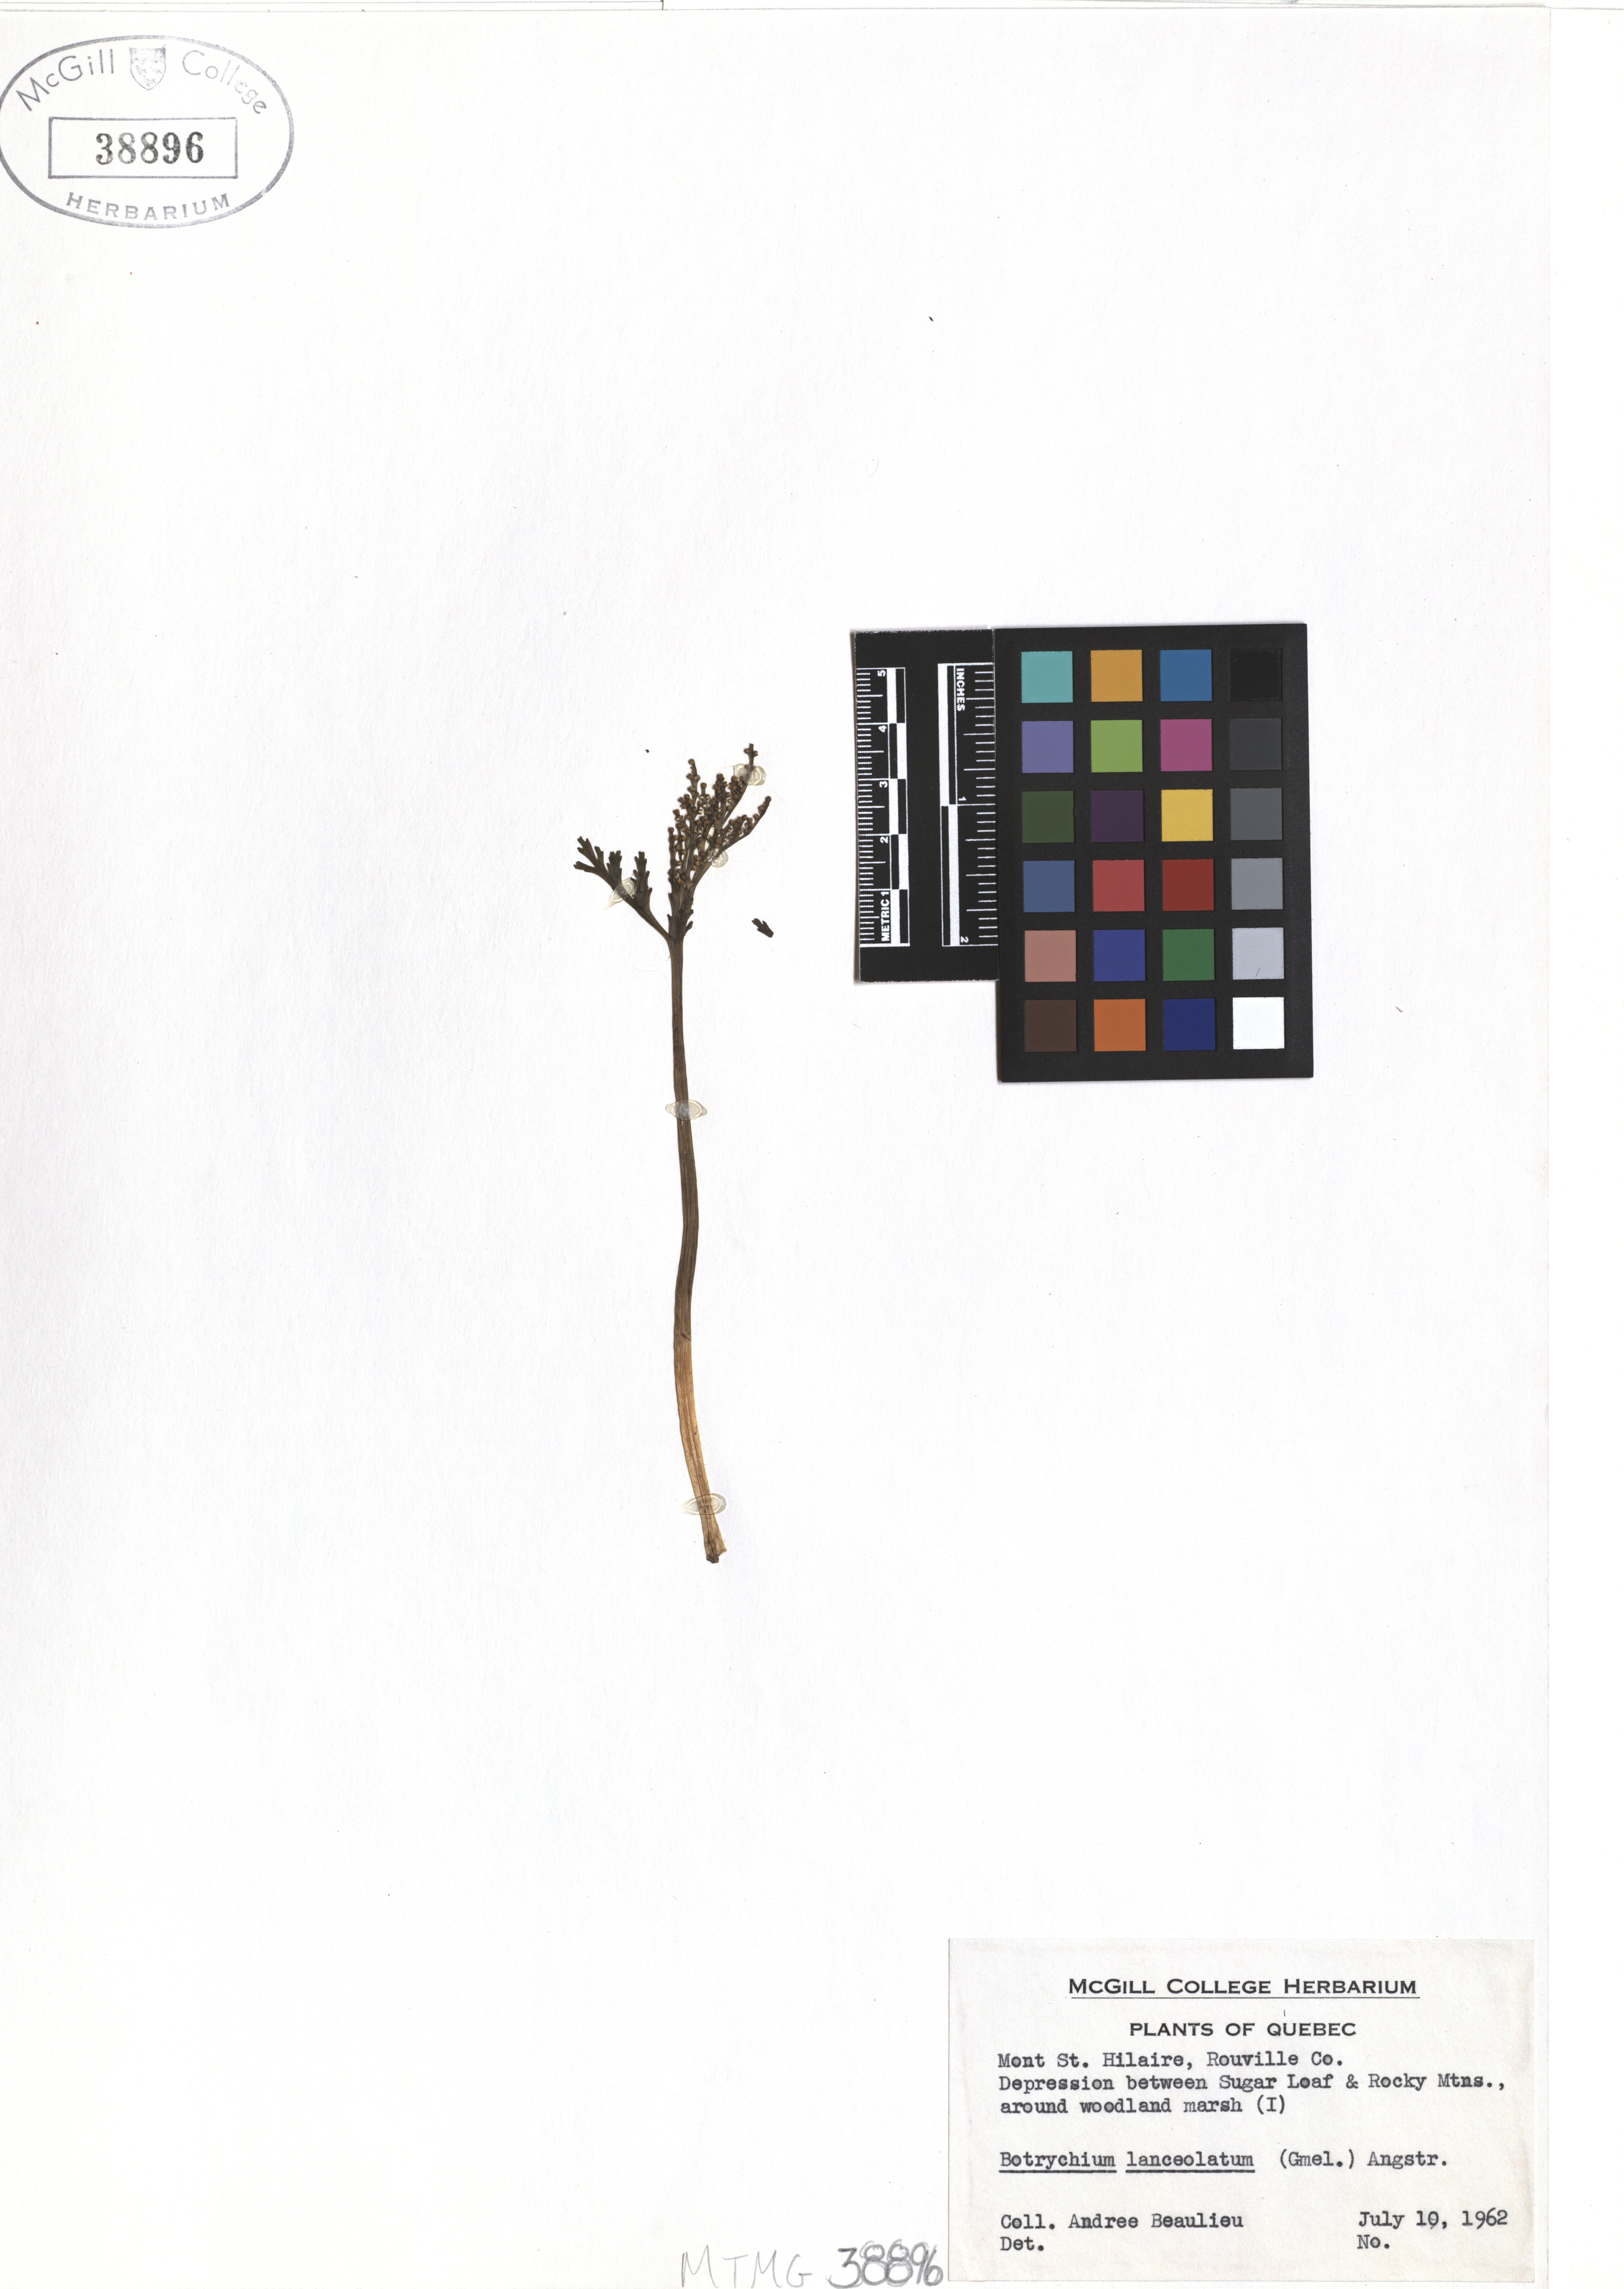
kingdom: Plantae
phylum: Tracheophyta
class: Polypodiopsida
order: Ophioglossales
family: Ophioglossaceae
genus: Botrychium
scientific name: Botrychium lanceolatum
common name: Lance-leaved moonwort
